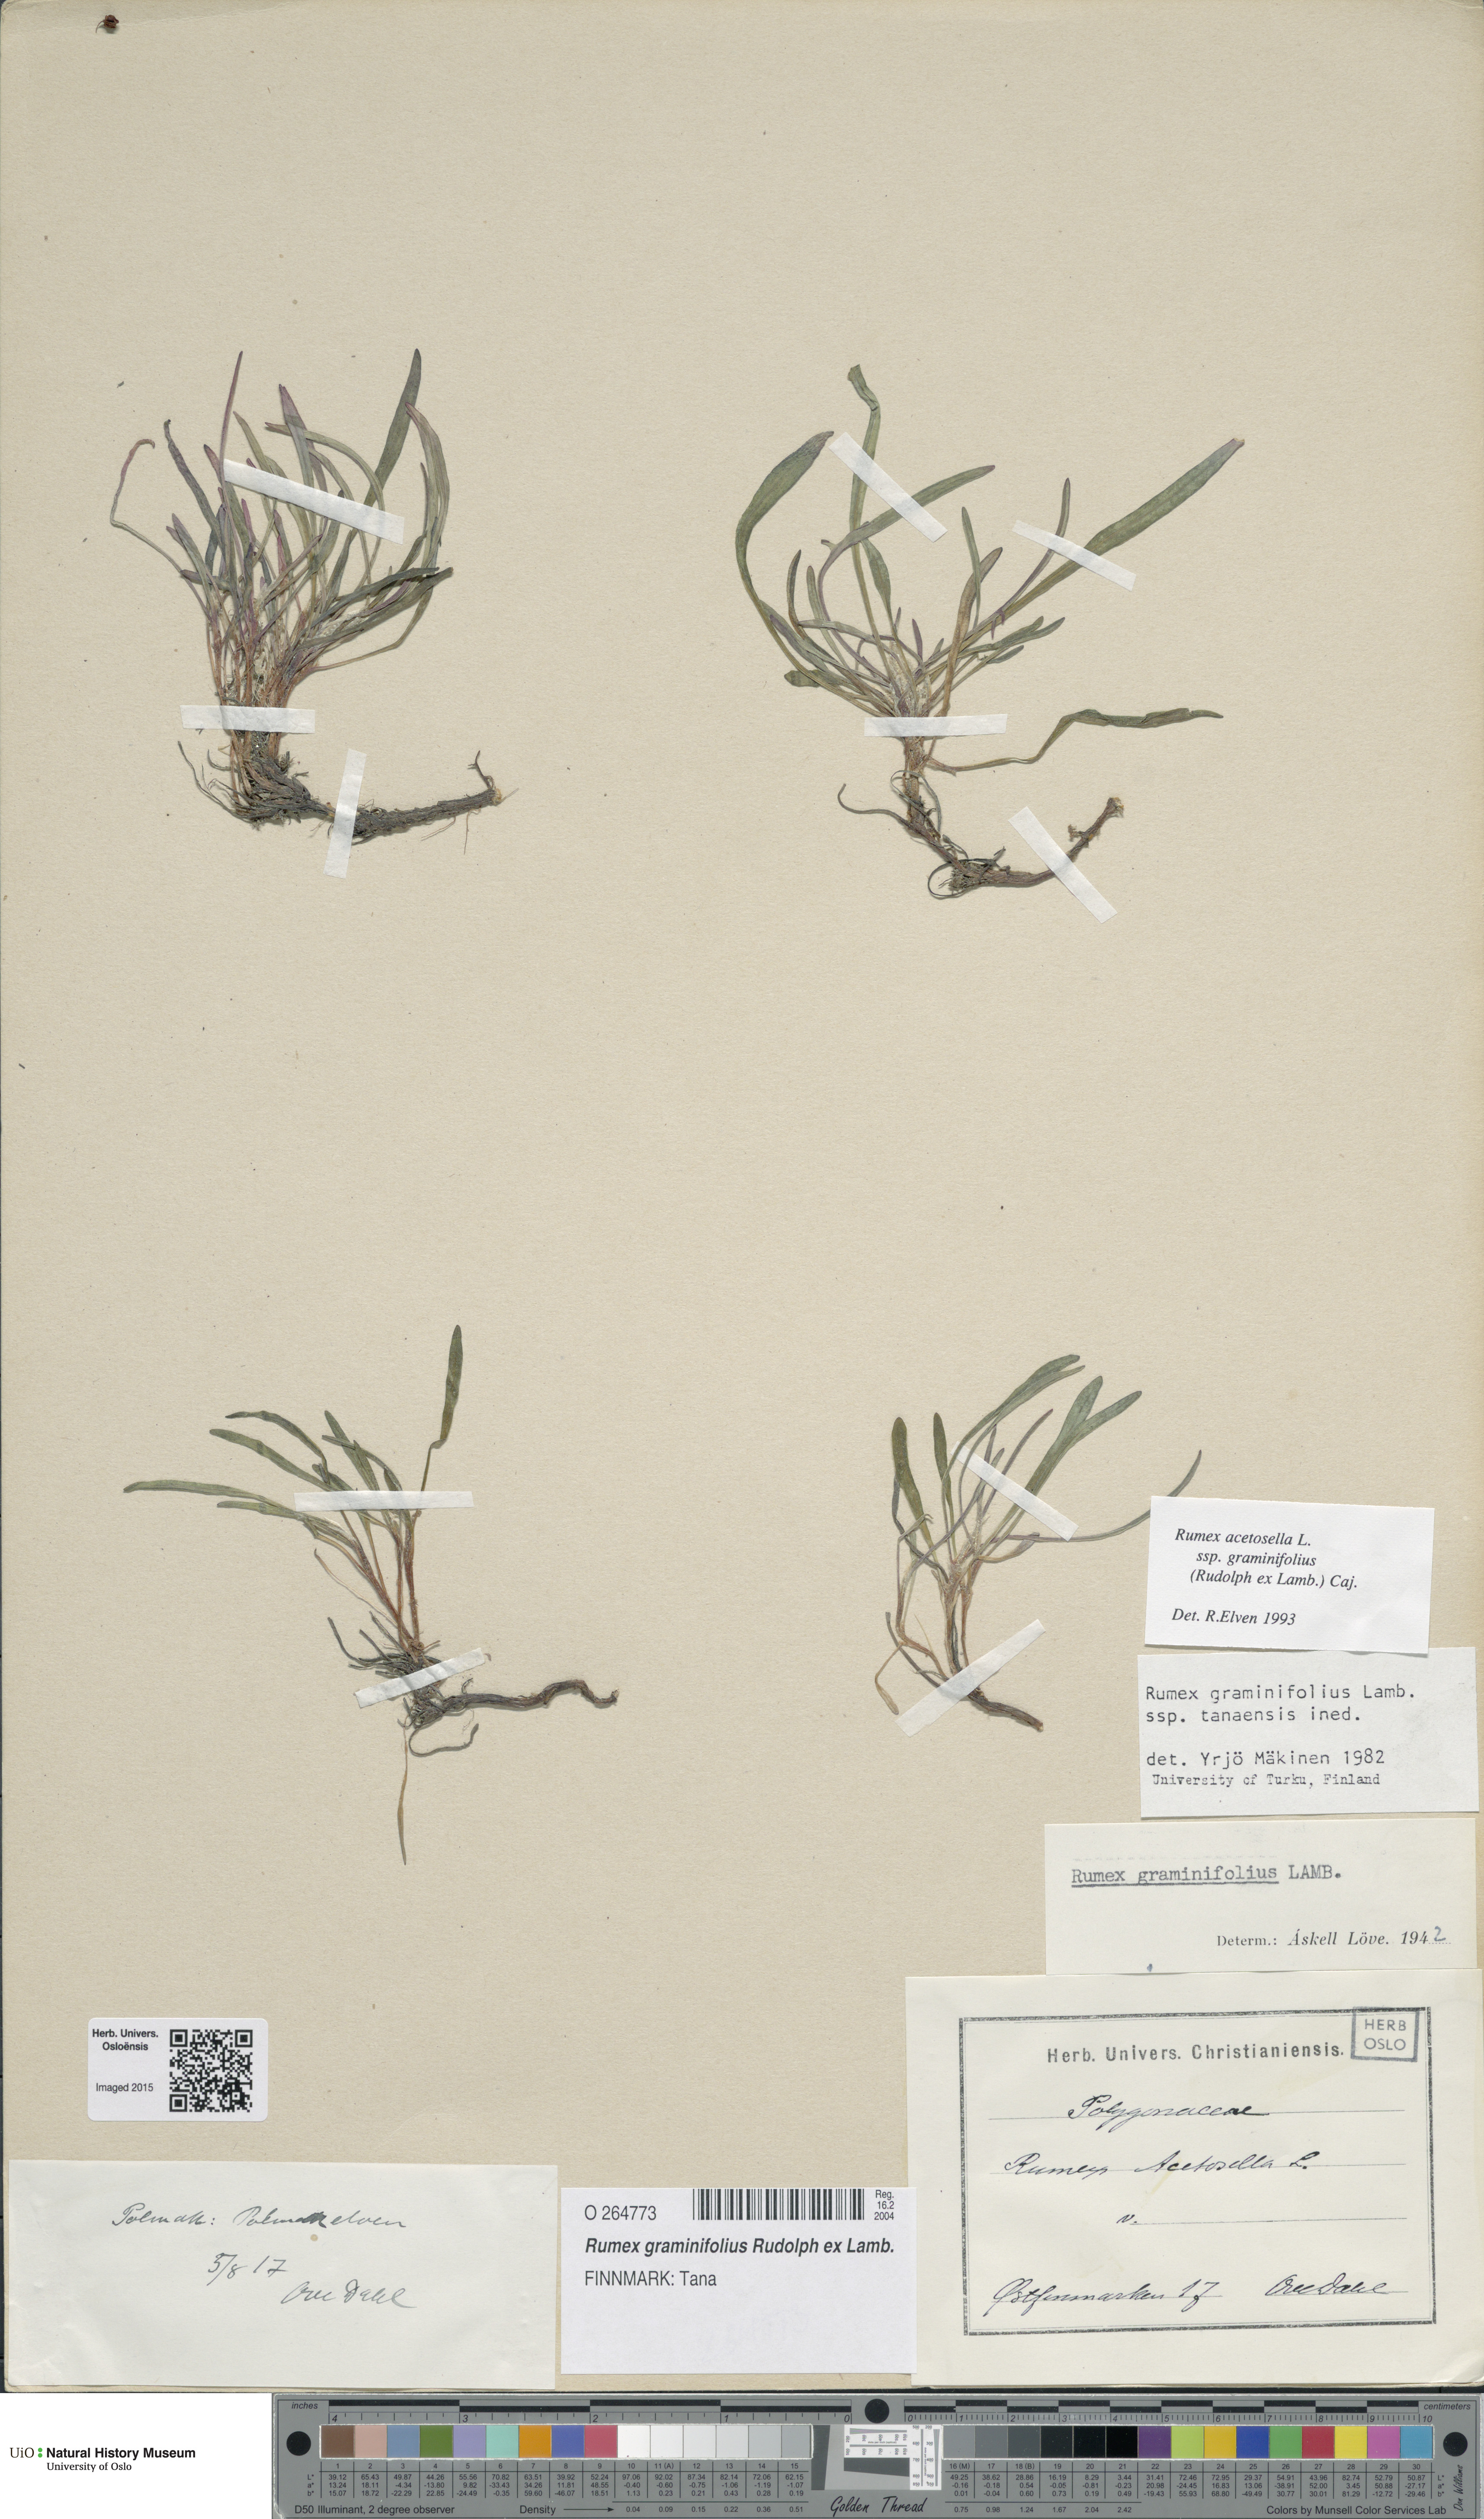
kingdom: Plantae
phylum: Tracheophyta
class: Magnoliopsida
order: Caryophyllales
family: Polygonaceae
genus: Rumex
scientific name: Rumex graminifolius
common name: Grass-leaved sorrel
